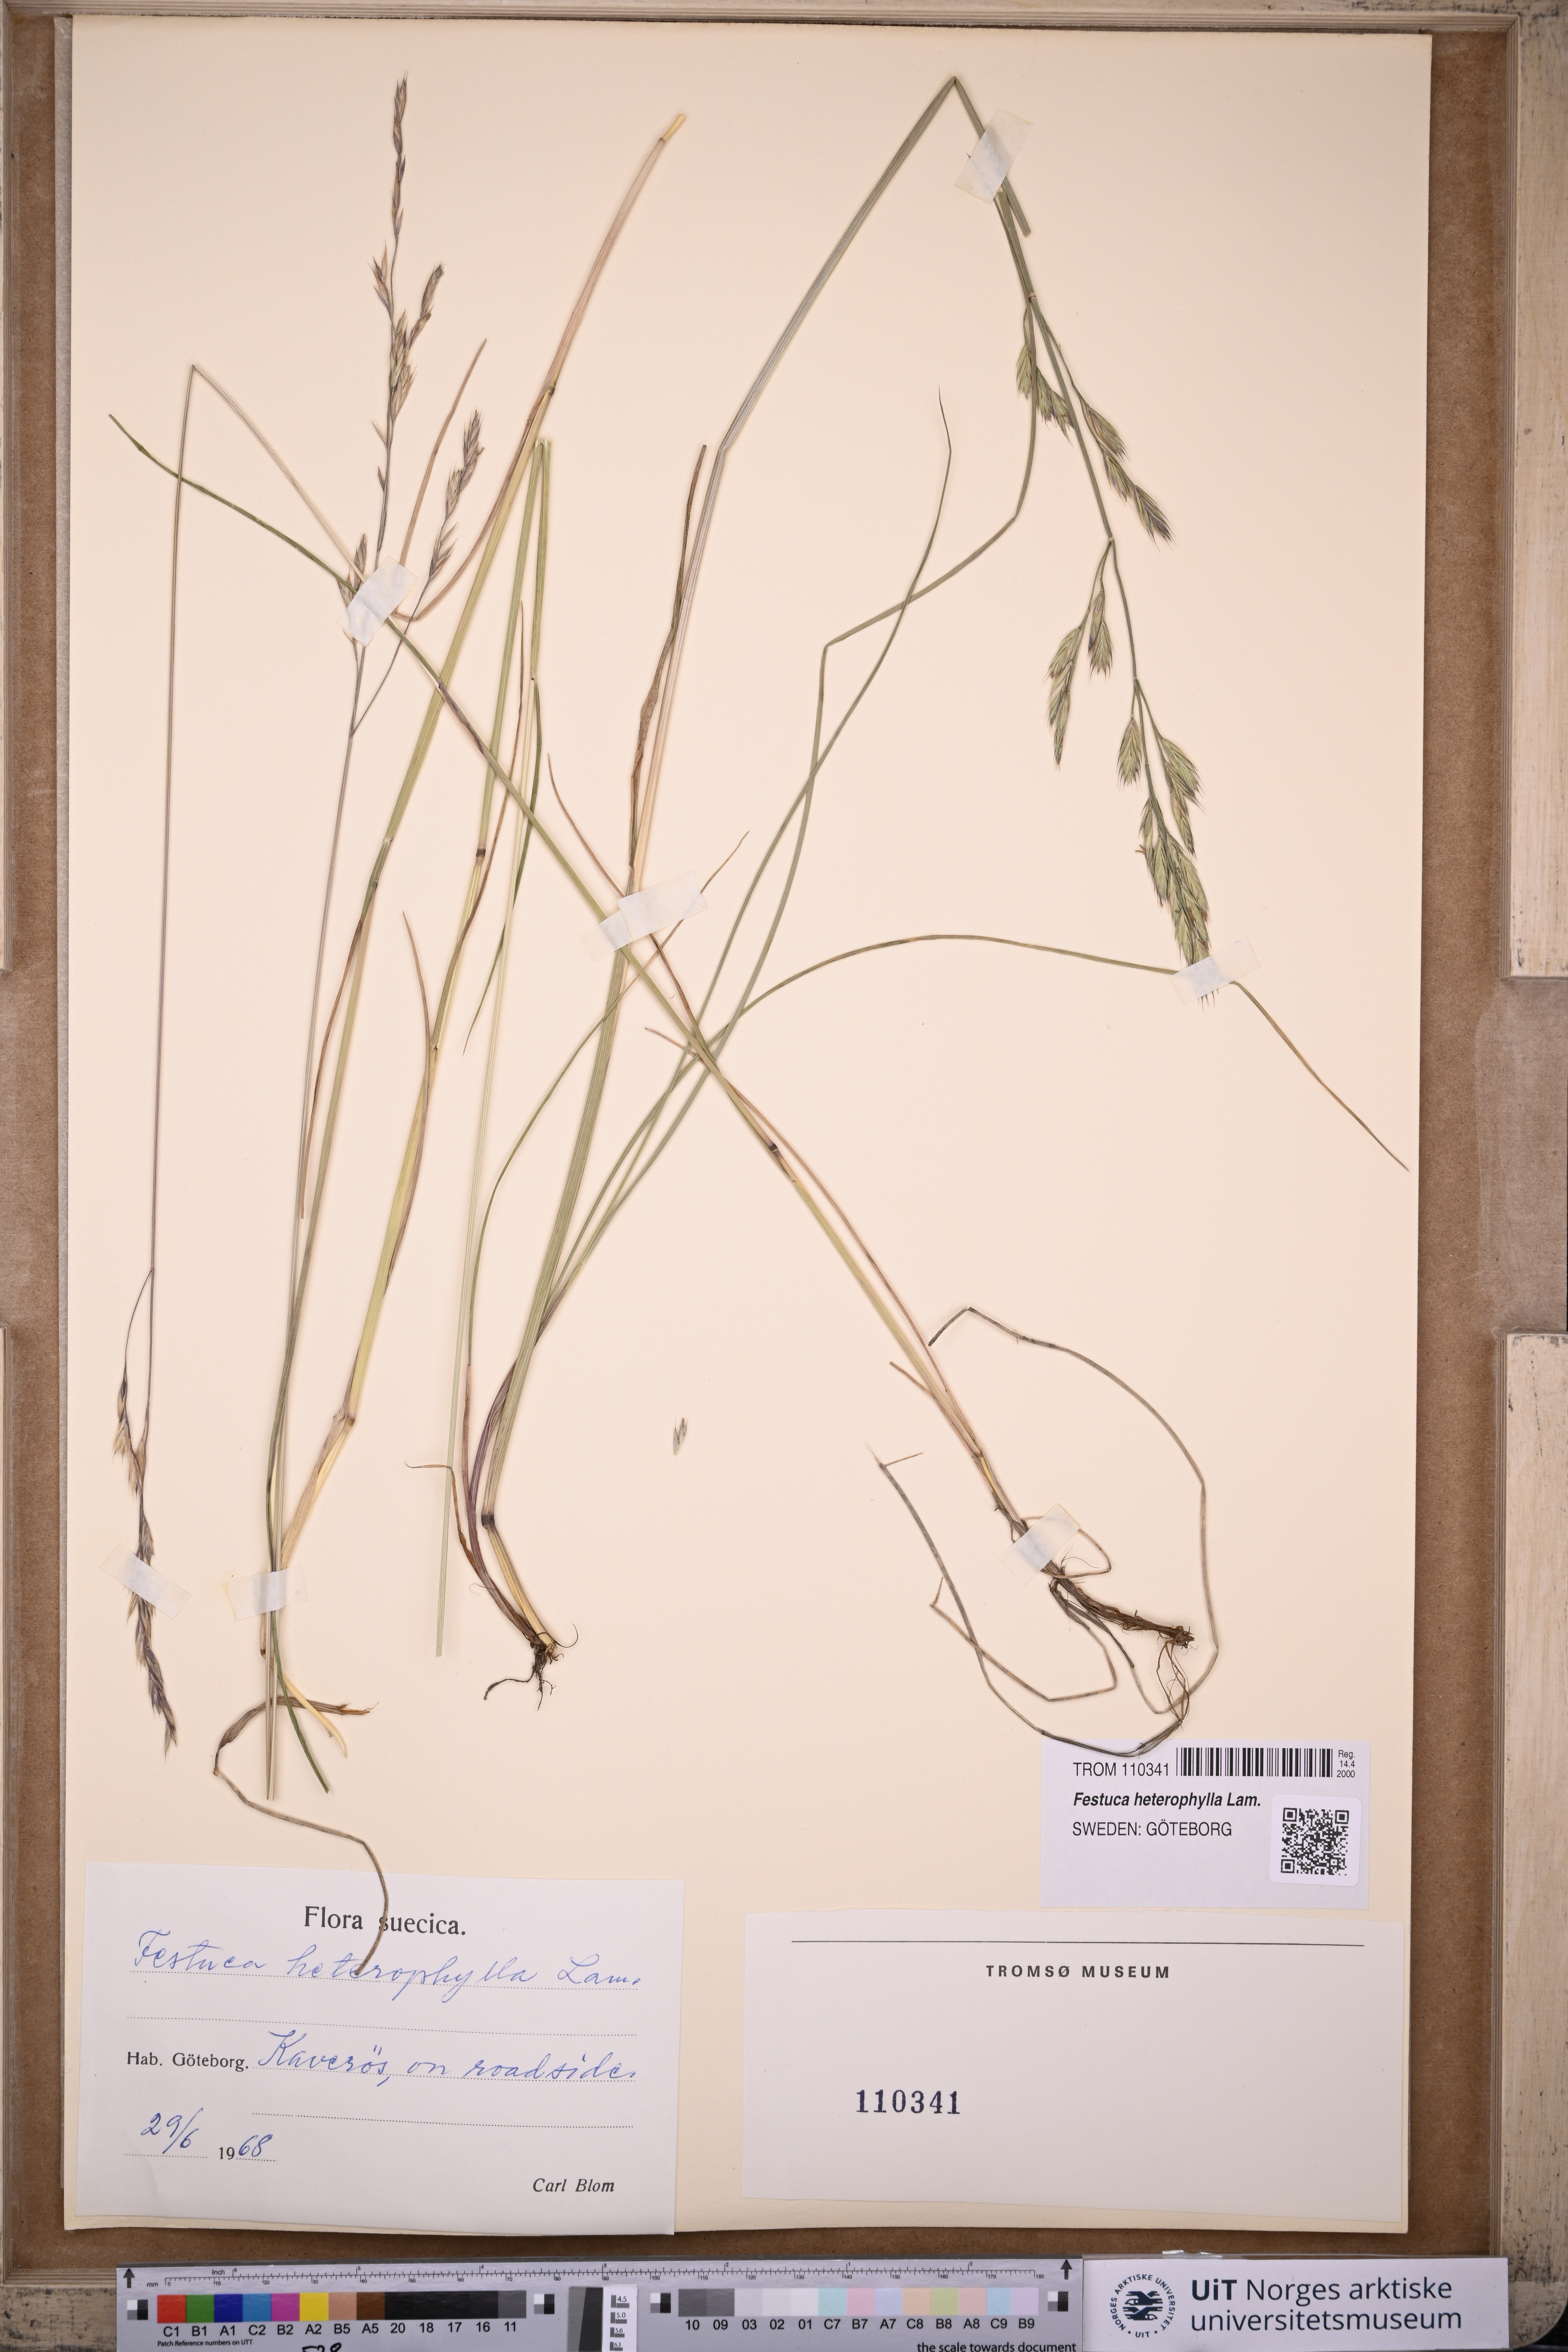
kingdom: Plantae
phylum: Tracheophyta
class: Liliopsida
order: Poales
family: Poaceae
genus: Festuca
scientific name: Festuca heterophylla
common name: Various-leaved fescue
